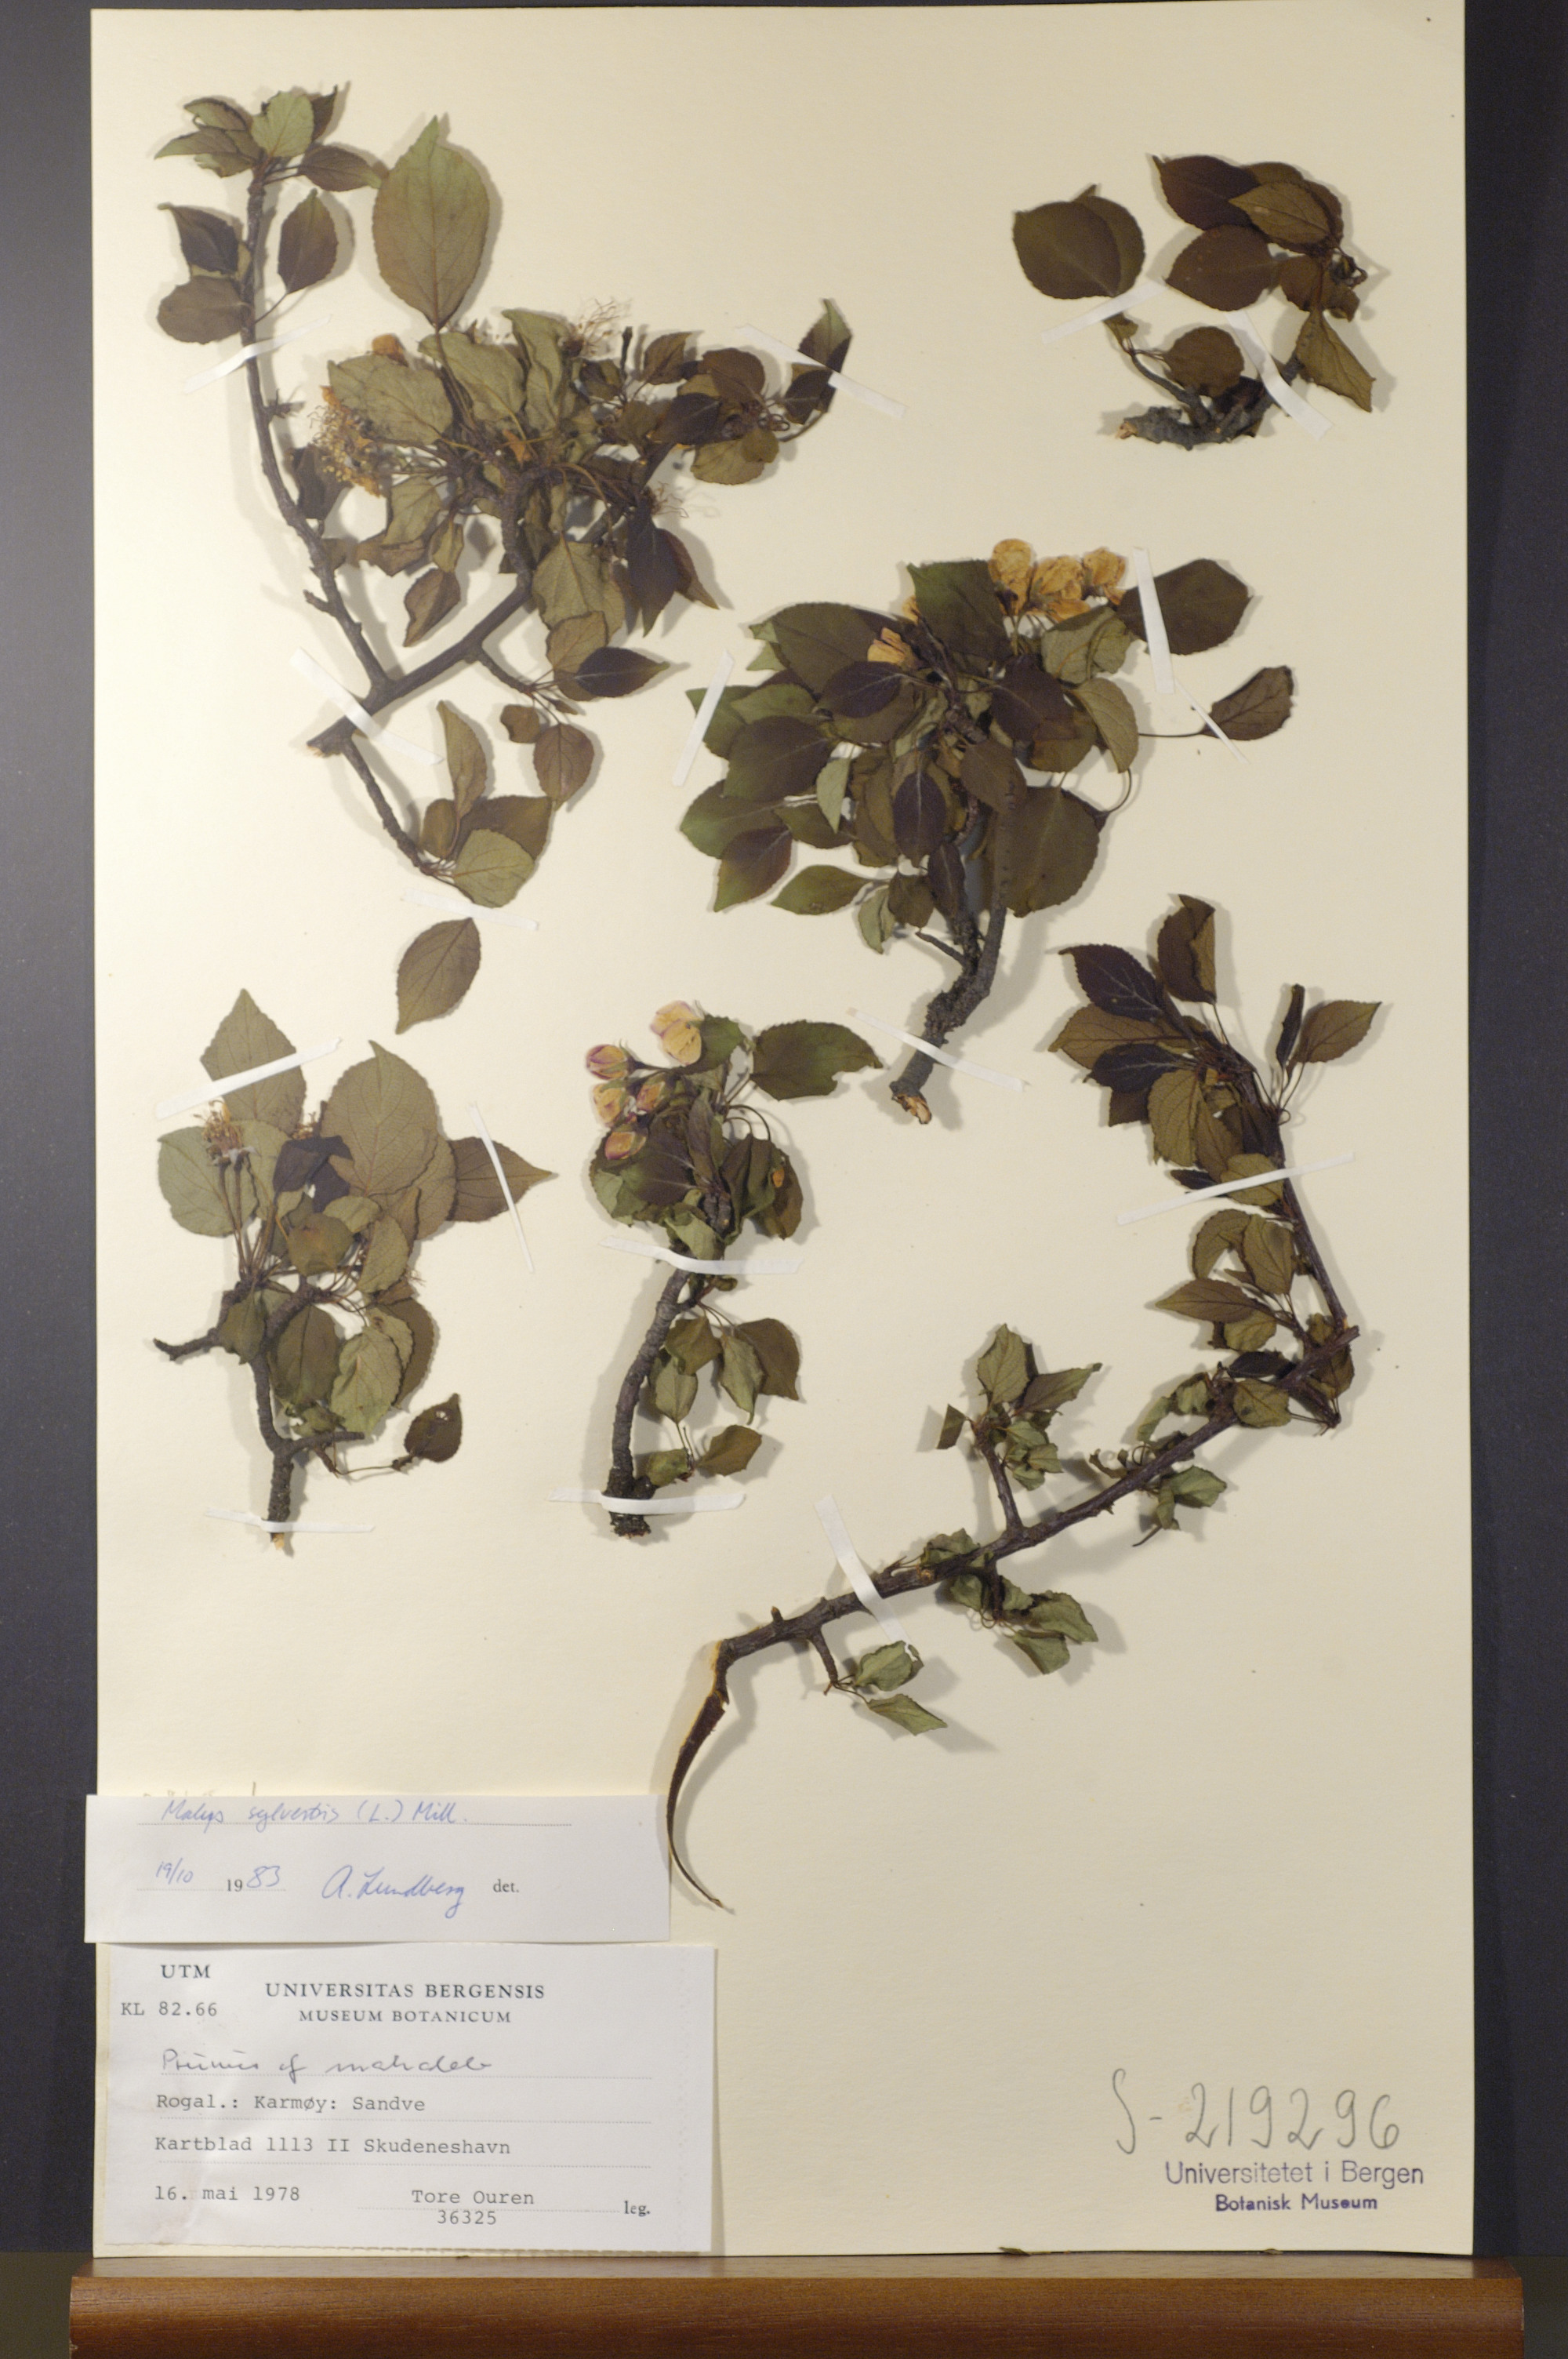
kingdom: Plantae
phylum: Tracheophyta
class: Magnoliopsida
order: Rosales
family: Rosaceae
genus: Malus
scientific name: Malus sylvestris
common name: Crab apple
